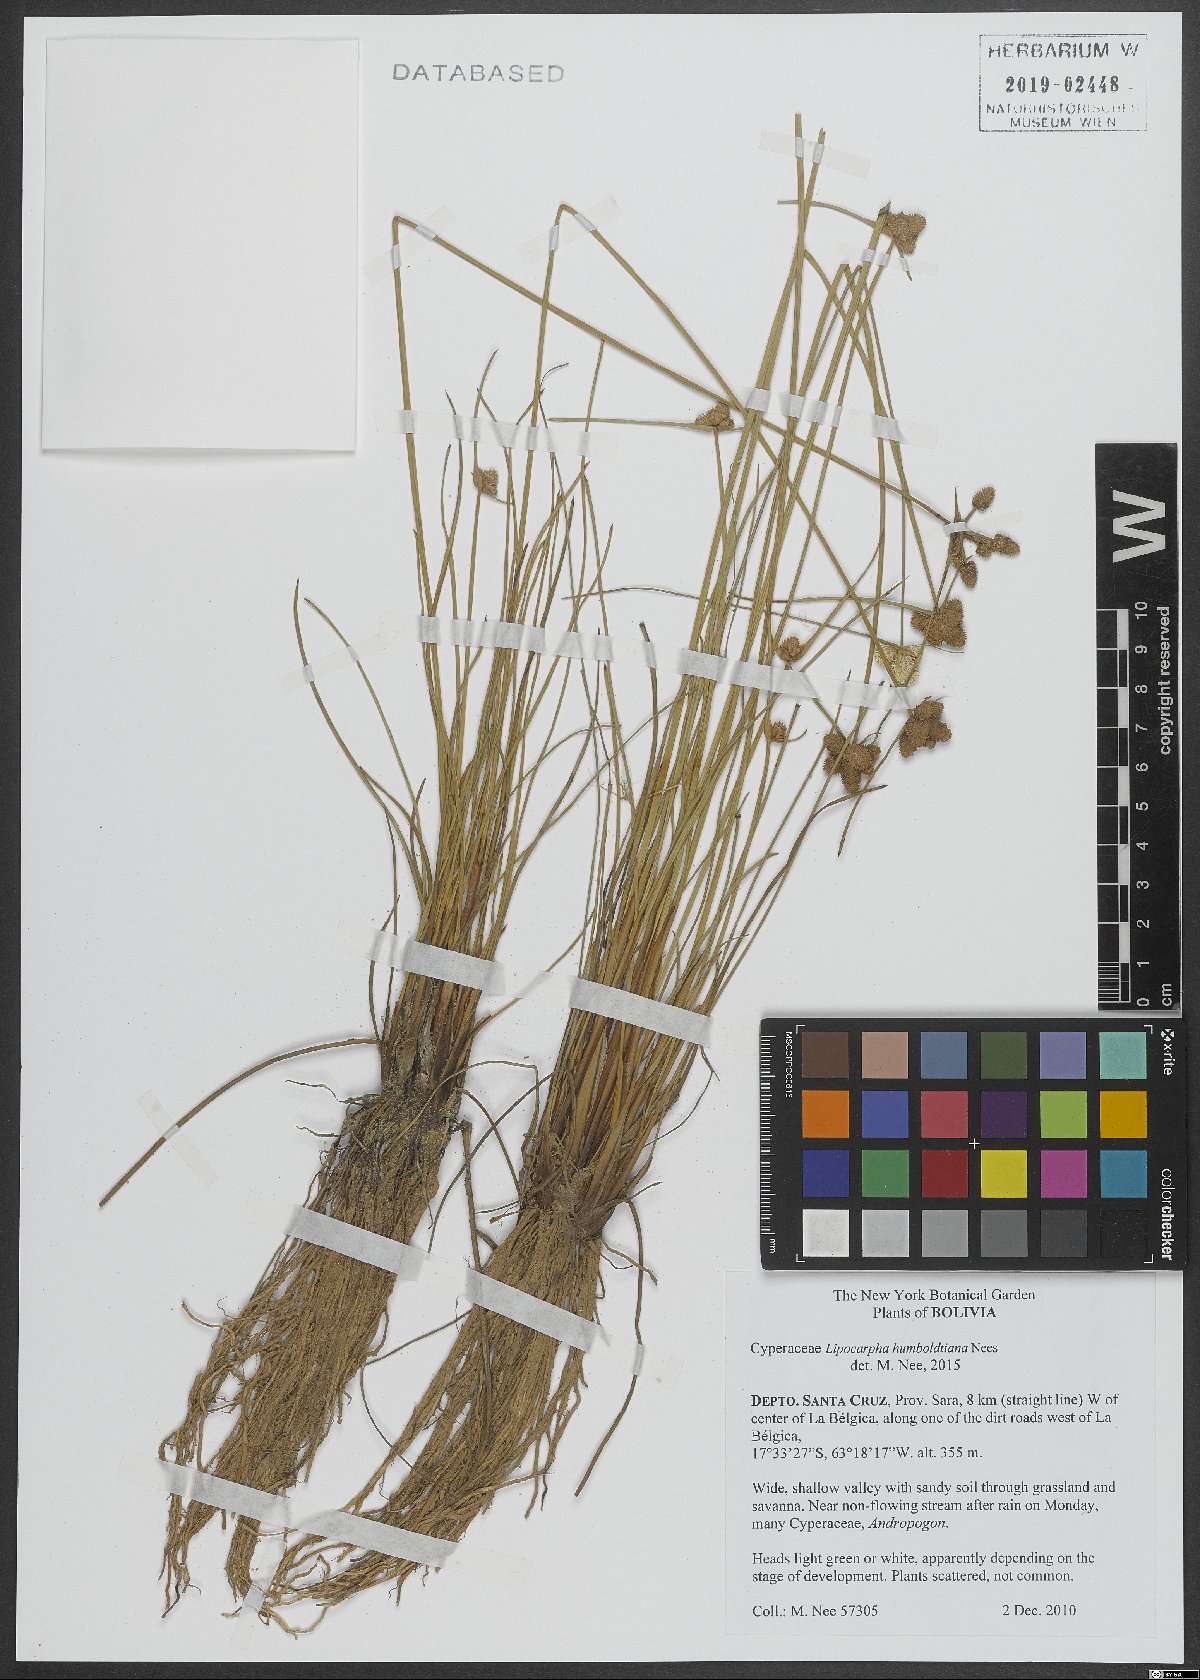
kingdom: Plantae
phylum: Tracheophyta
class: Liliopsida
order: Poales
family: Cyperaceae
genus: Cyperus
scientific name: Cyperus sellowianus
